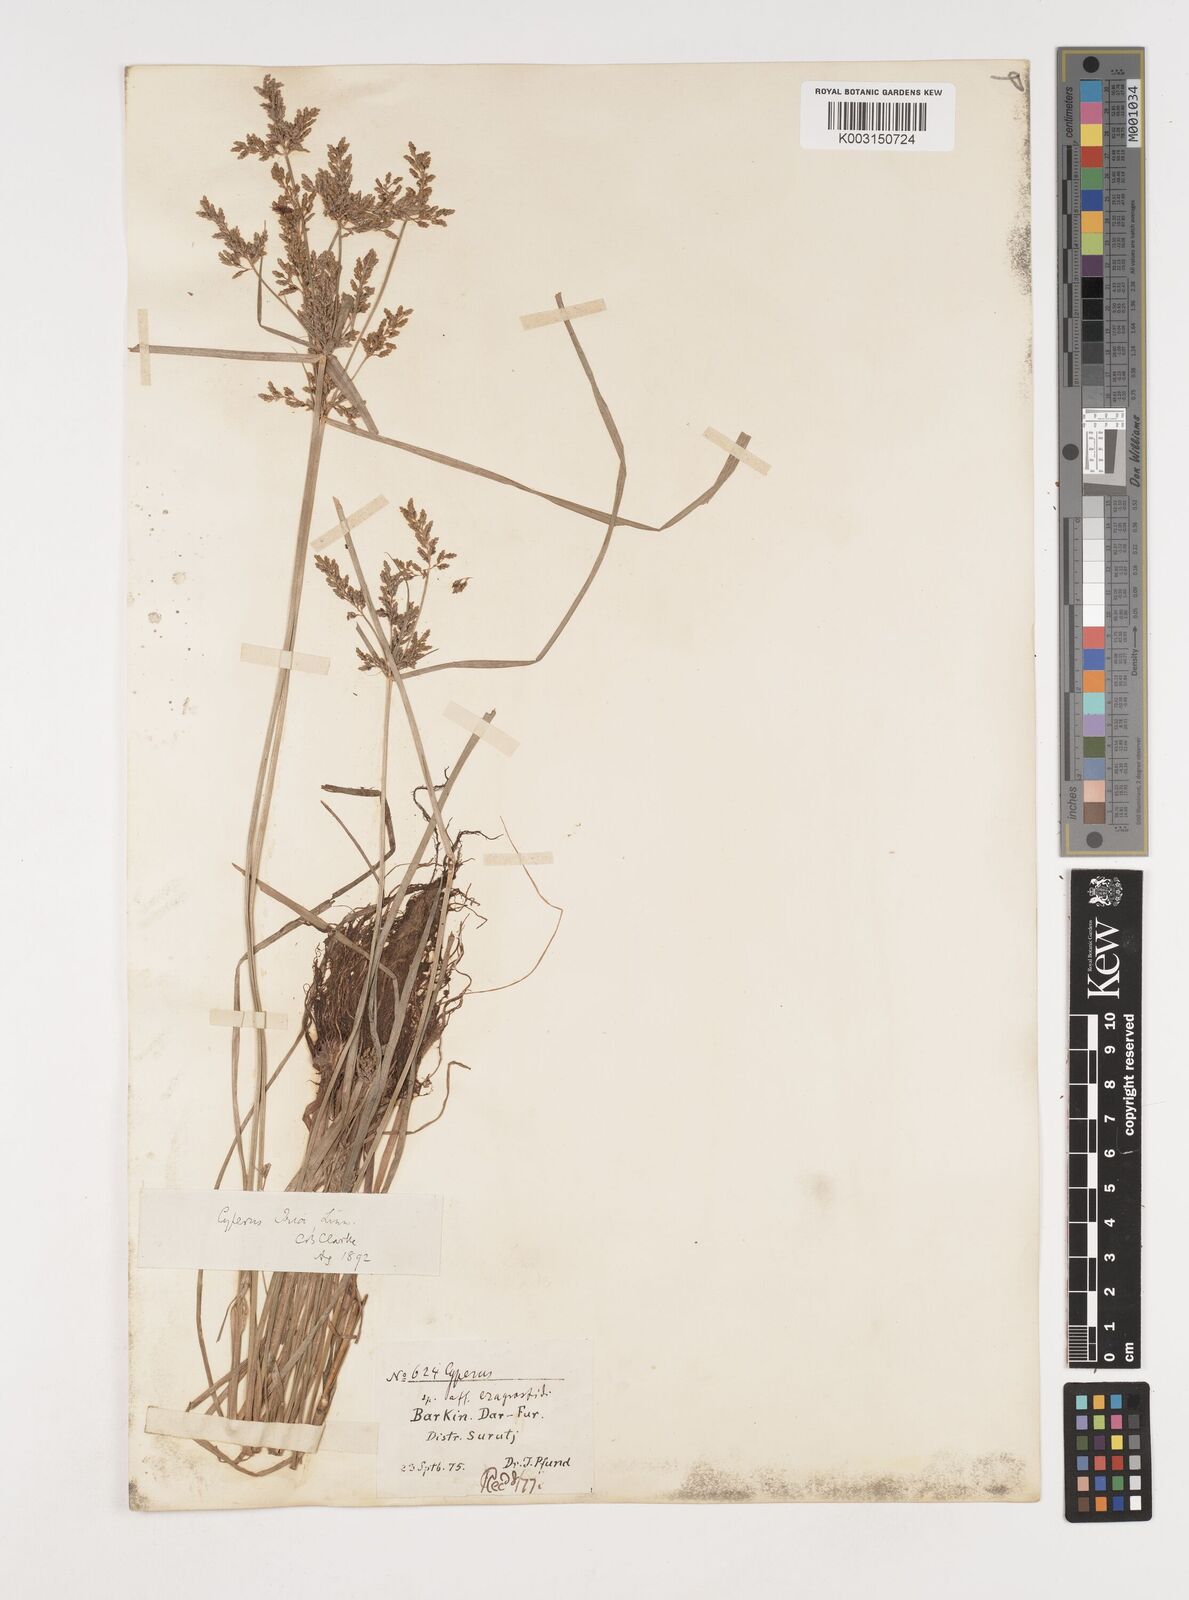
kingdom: Plantae
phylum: Tracheophyta
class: Liliopsida
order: Poales
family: Cyperaceae
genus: Cyperus
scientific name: Cyperus iria
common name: Ricefield flatsedge
